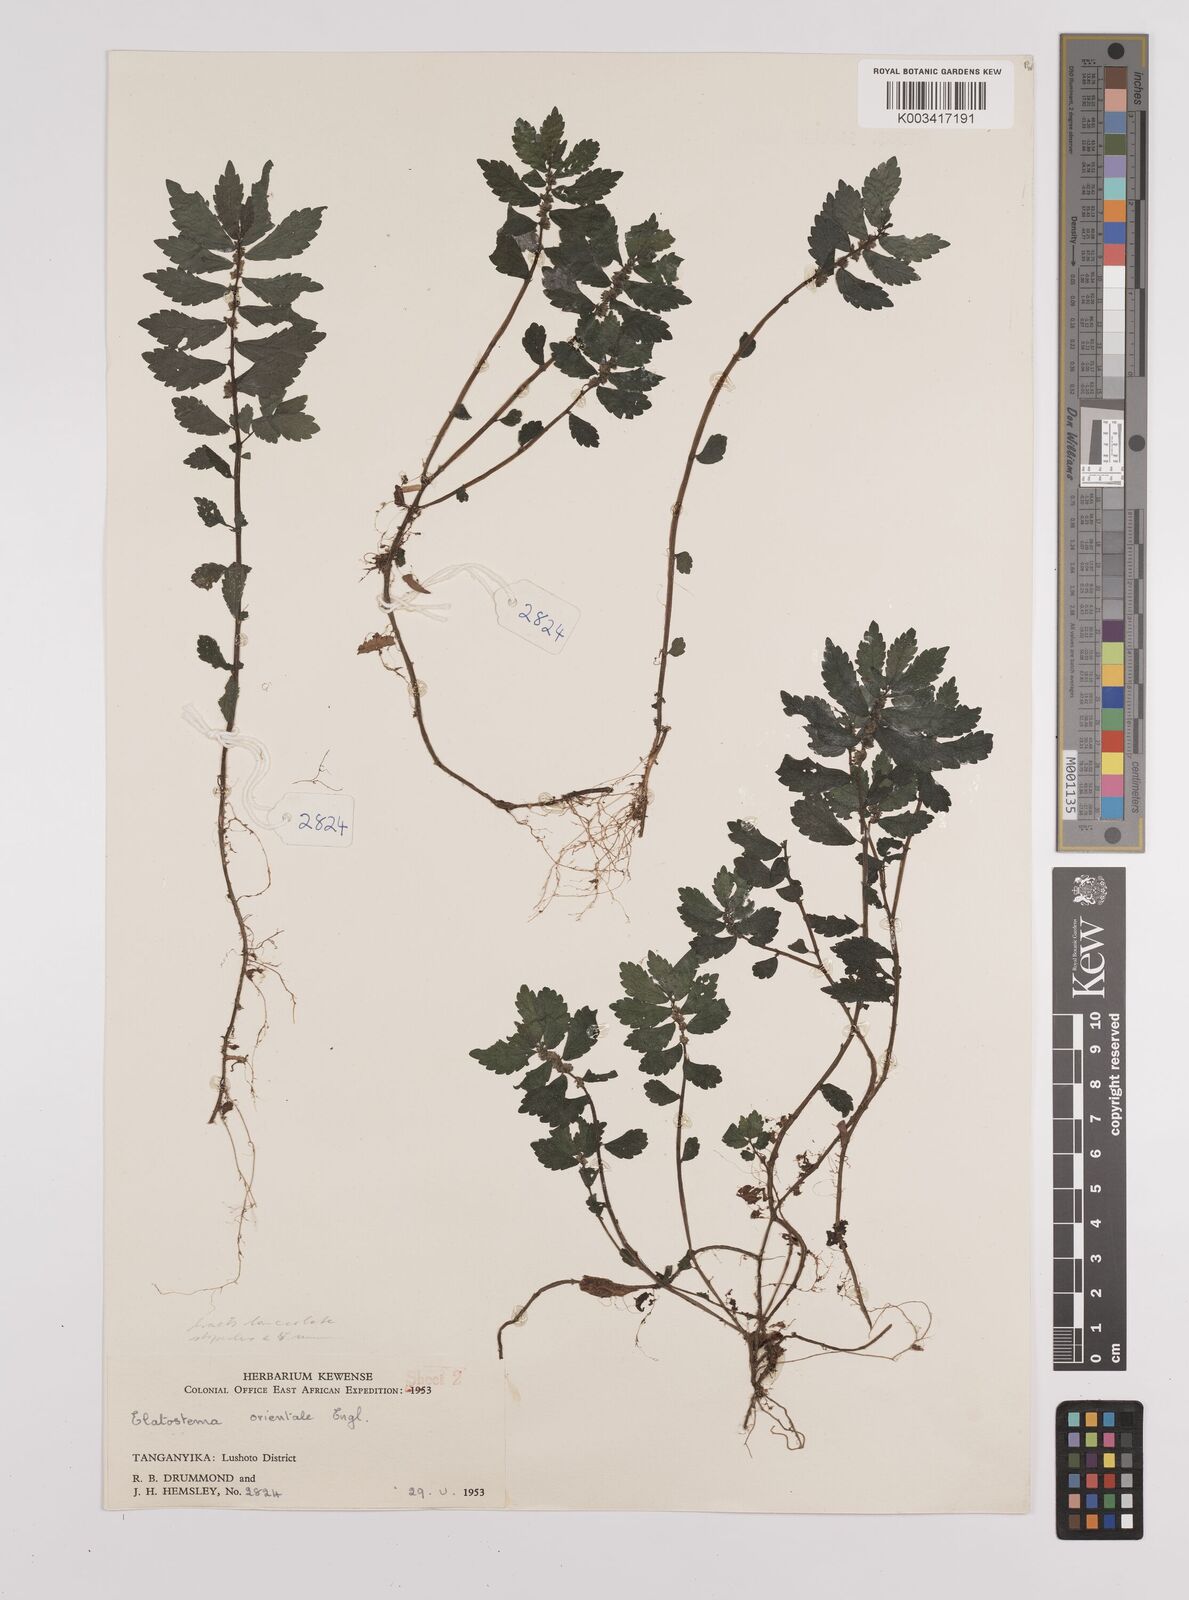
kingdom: Plantae
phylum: Tracheophyta
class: Magnoliopsida
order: Rosales
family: Urticaceae
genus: Elatostema
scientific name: Elatostema monticola
